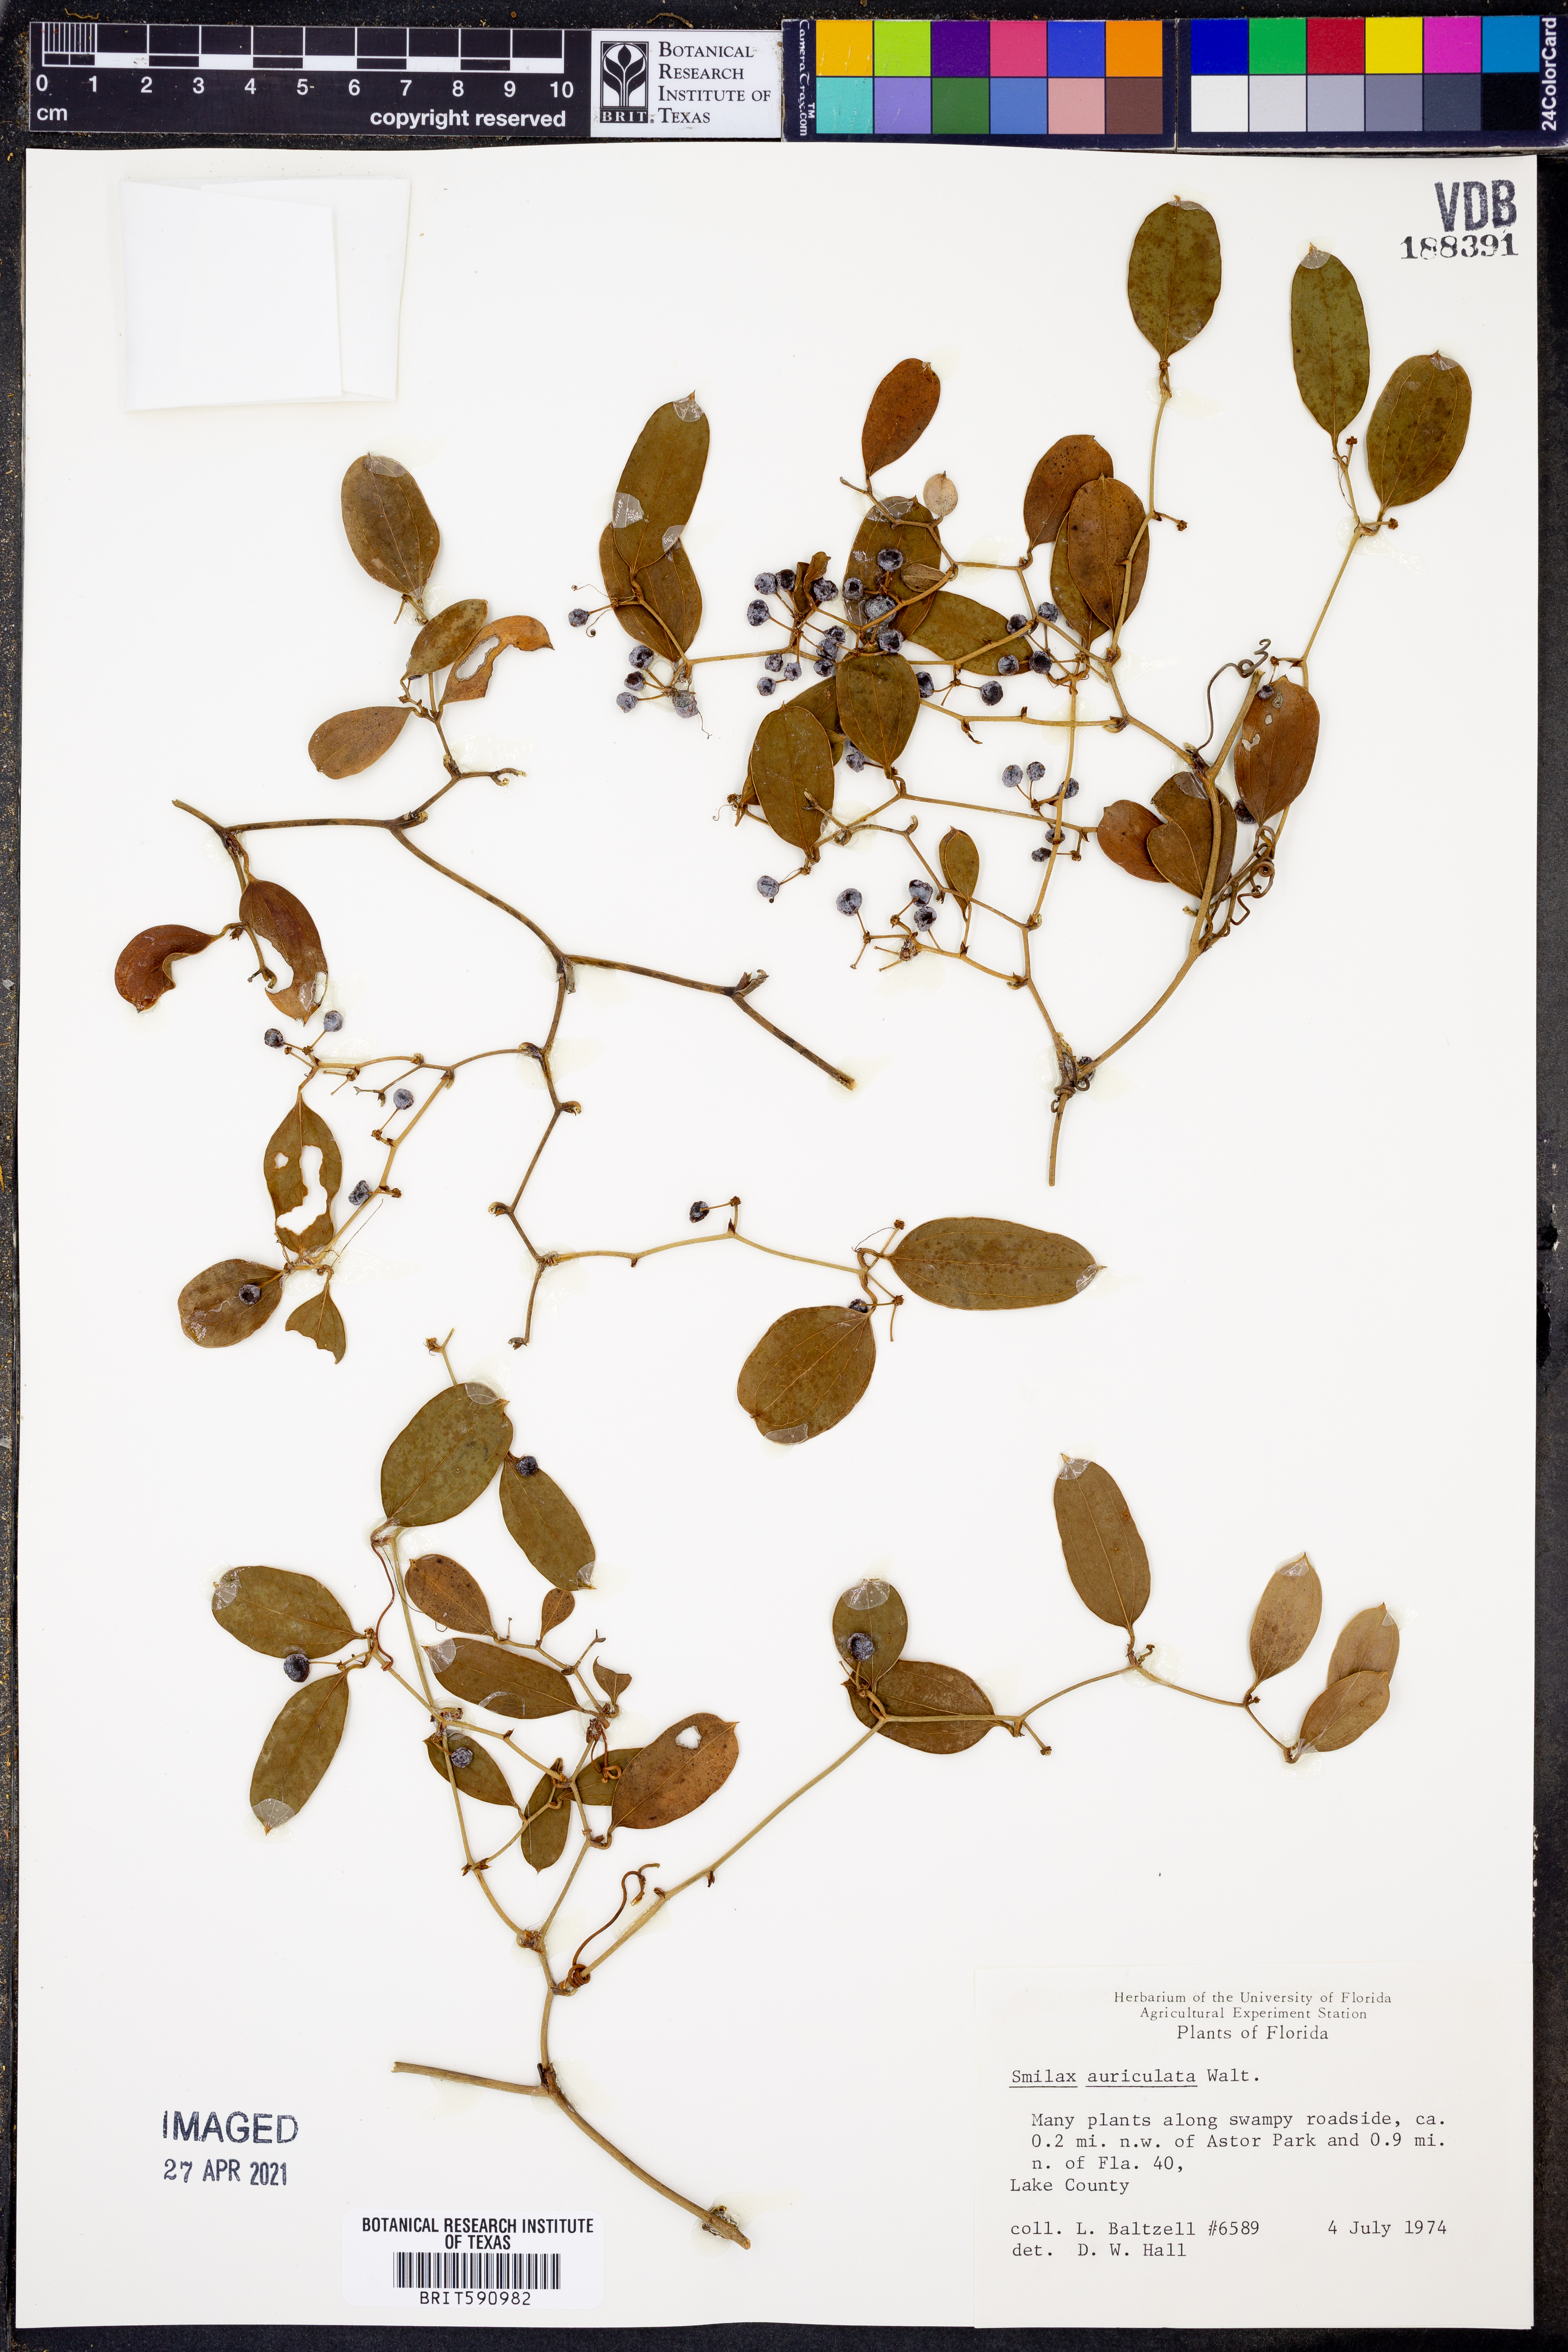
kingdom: Plantae
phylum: Tracheophyta
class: Liliopsida
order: Liliales
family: Smilacaceae
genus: Smilax
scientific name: Smilax auriculata
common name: Wild bamboo
